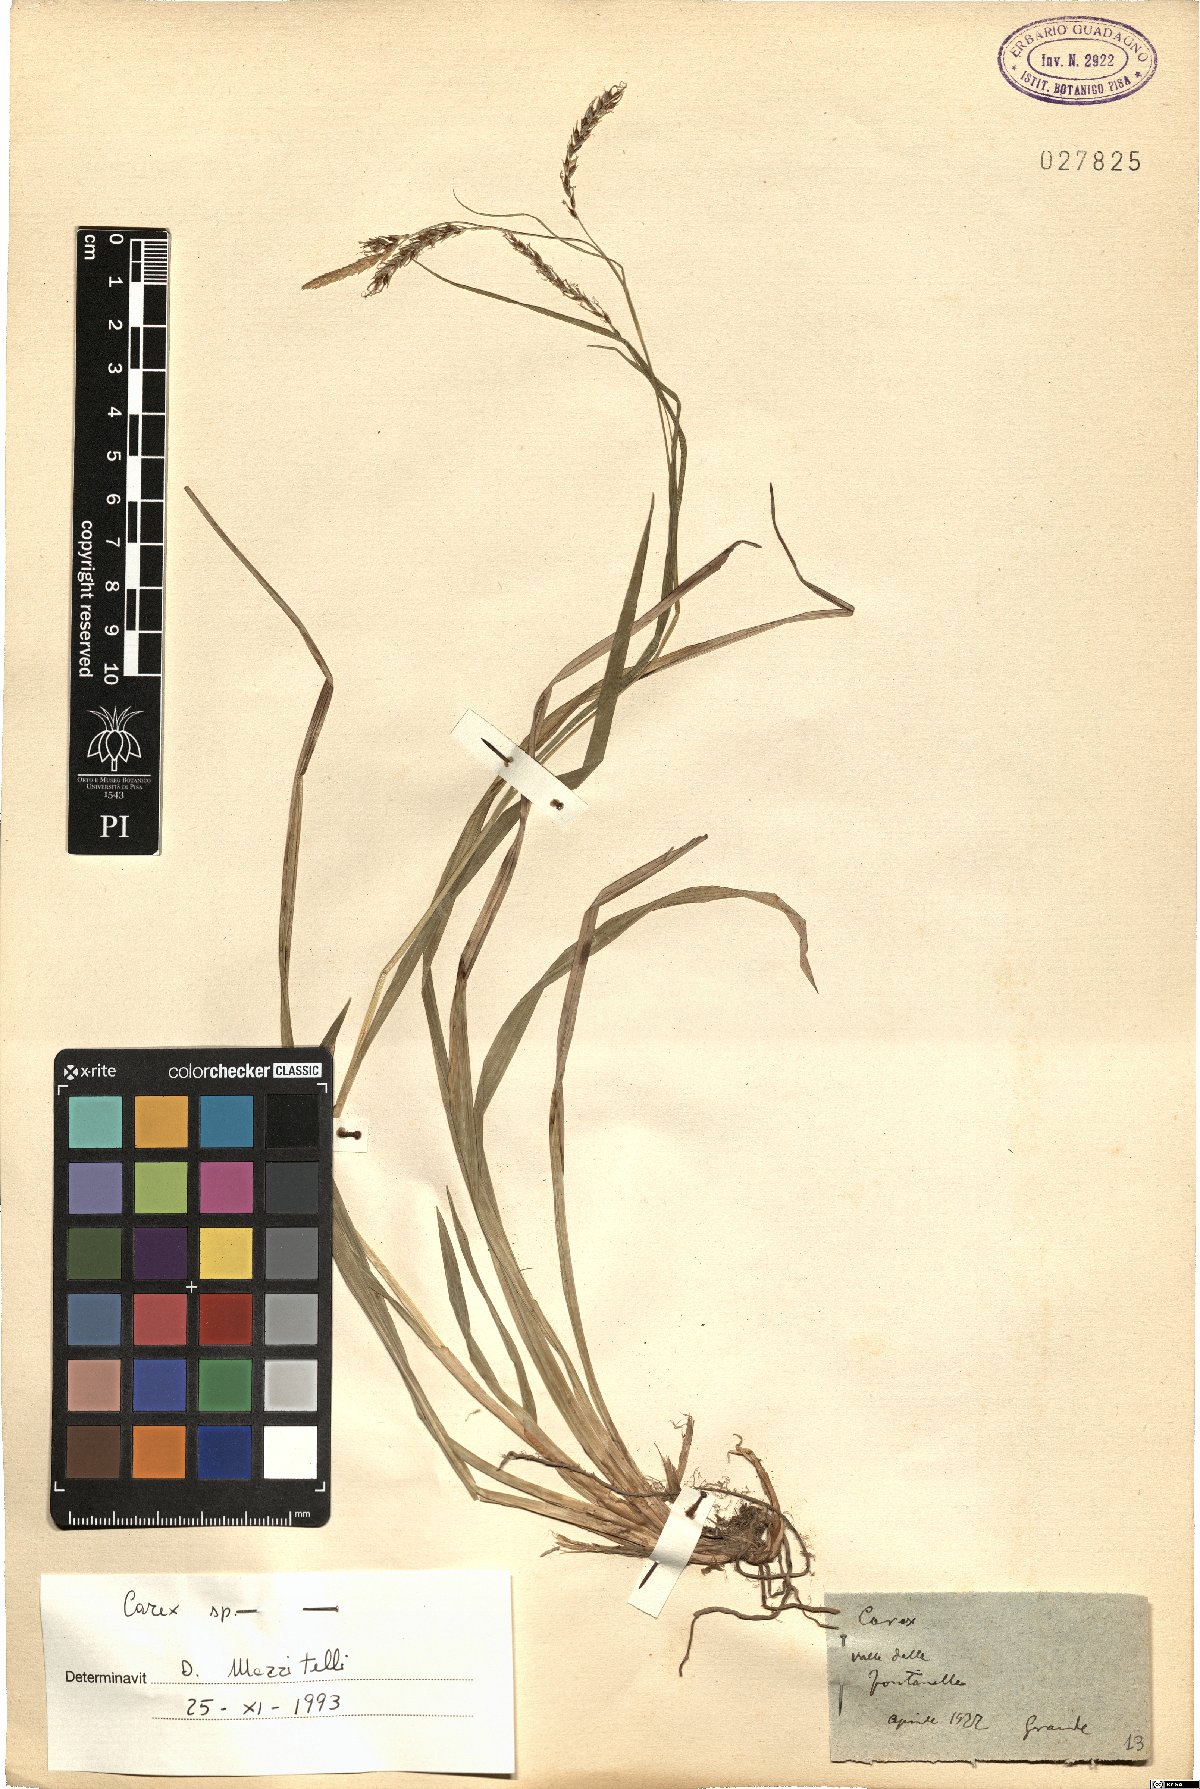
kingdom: Plantae
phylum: Tracheophyta
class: Liliopsida
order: Poales
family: Cyperaceae
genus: Carex
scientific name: Carex
